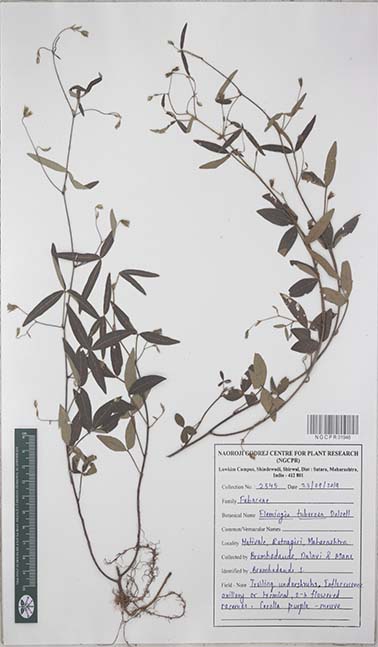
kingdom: Plantae
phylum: Tracheophyta
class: Magnoliopsida
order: Fabales
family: Fabaceae
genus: Flemingia
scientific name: Flemingia tuberosa
